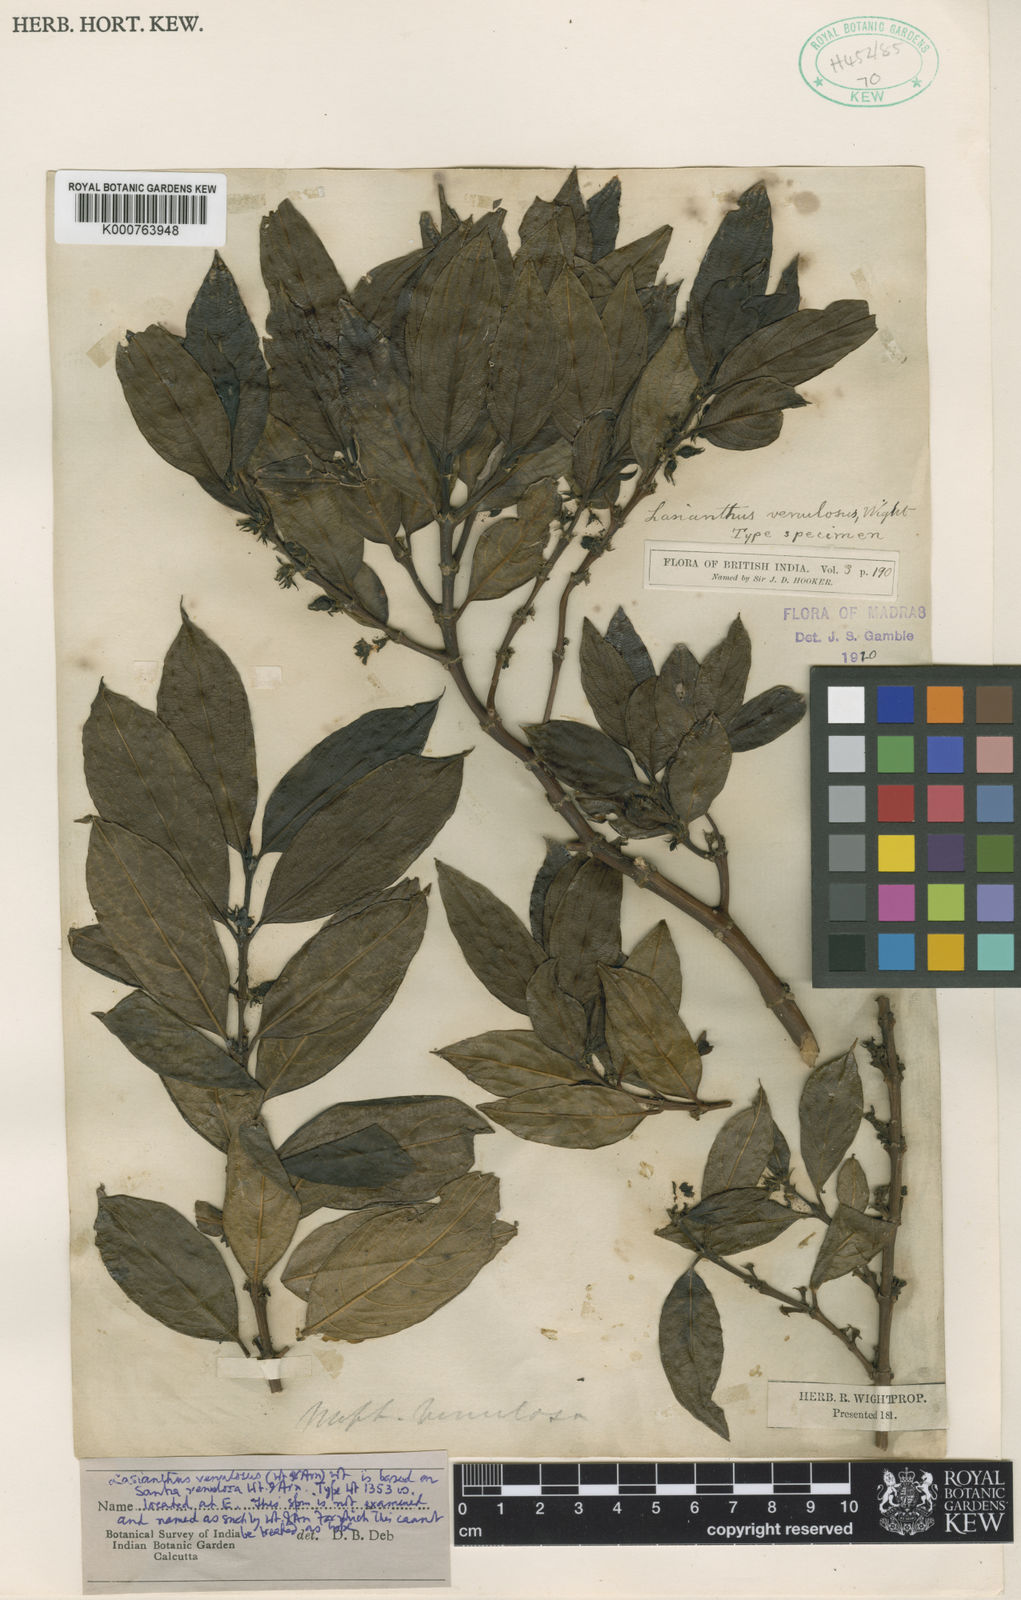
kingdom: Plantae
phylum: Tracheophyta
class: Magnoliopsida
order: Gentianales
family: Rubiaceae
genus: Lasianthus
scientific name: Lasianthus venulosus
